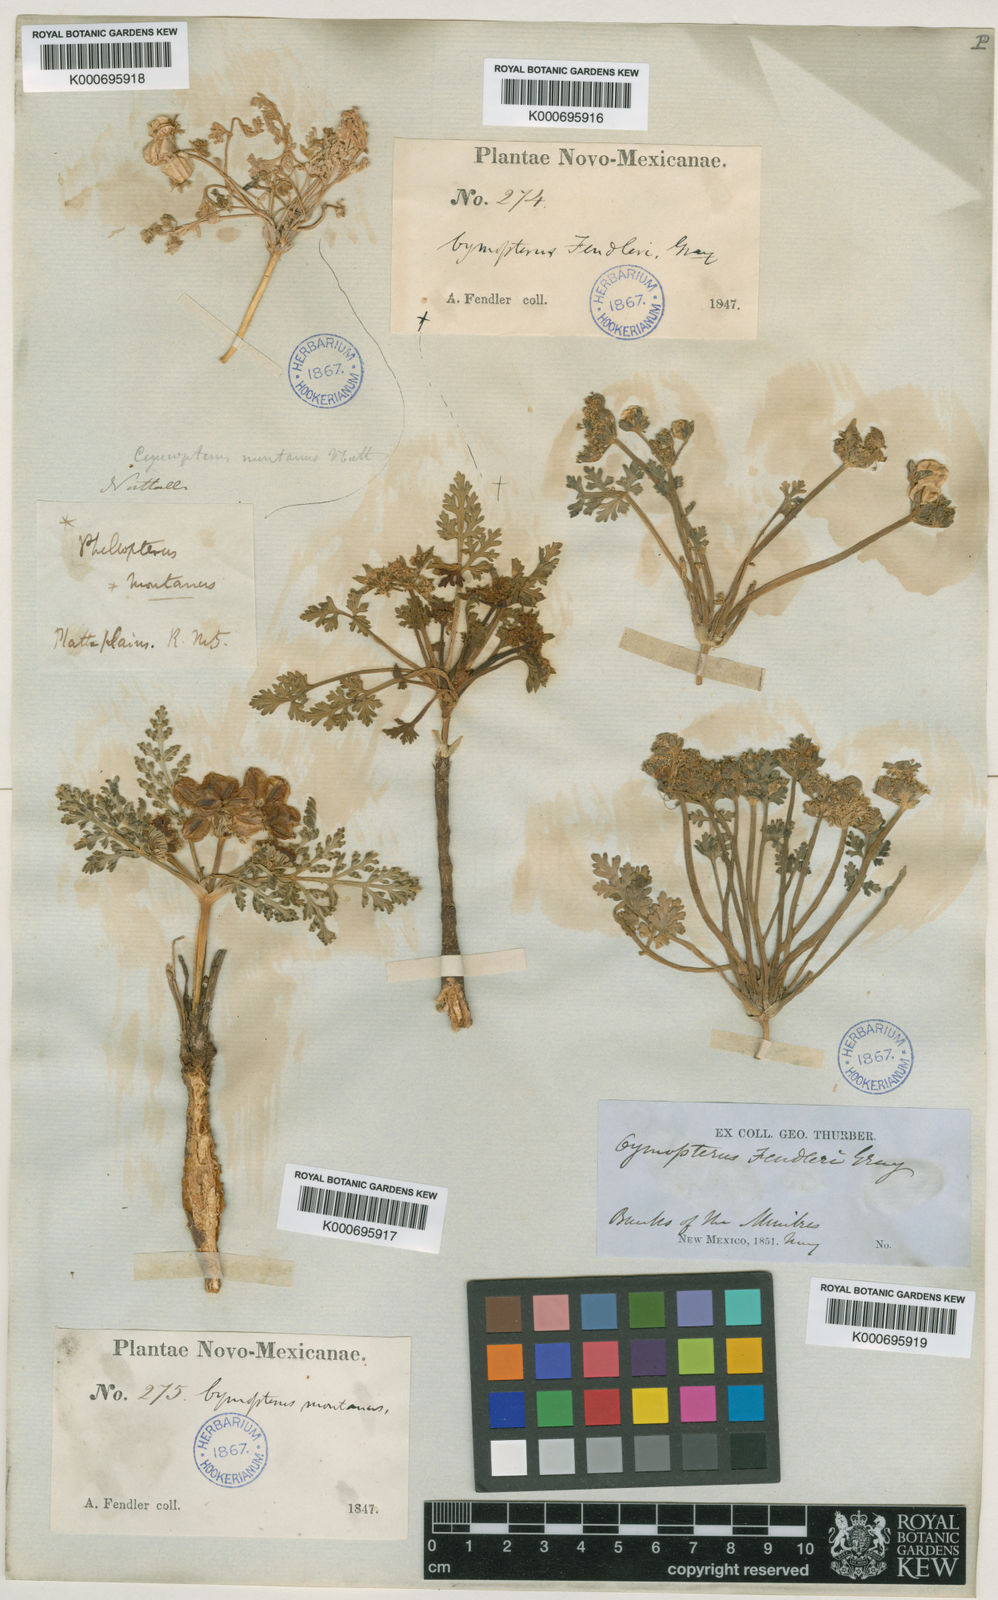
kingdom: Plantae
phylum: Tracheophyta
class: Magnoliopsida
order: Apiales
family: Apiaceae
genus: Vesper
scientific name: Vesper montanus
